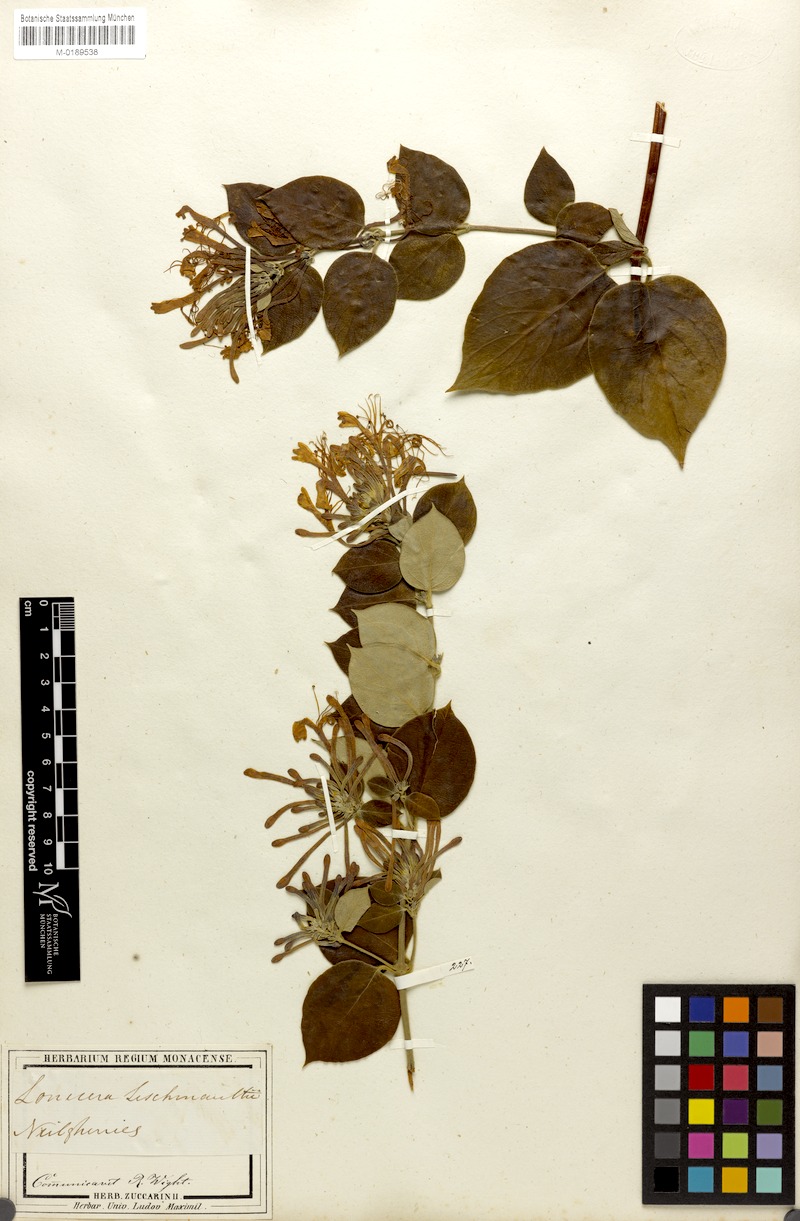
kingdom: Plantae
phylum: Tracheophyta
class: Magnoliopsida
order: Dipsacales
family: Caprifoliaceae
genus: Lonicera
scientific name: Lonicera leschenaultii
